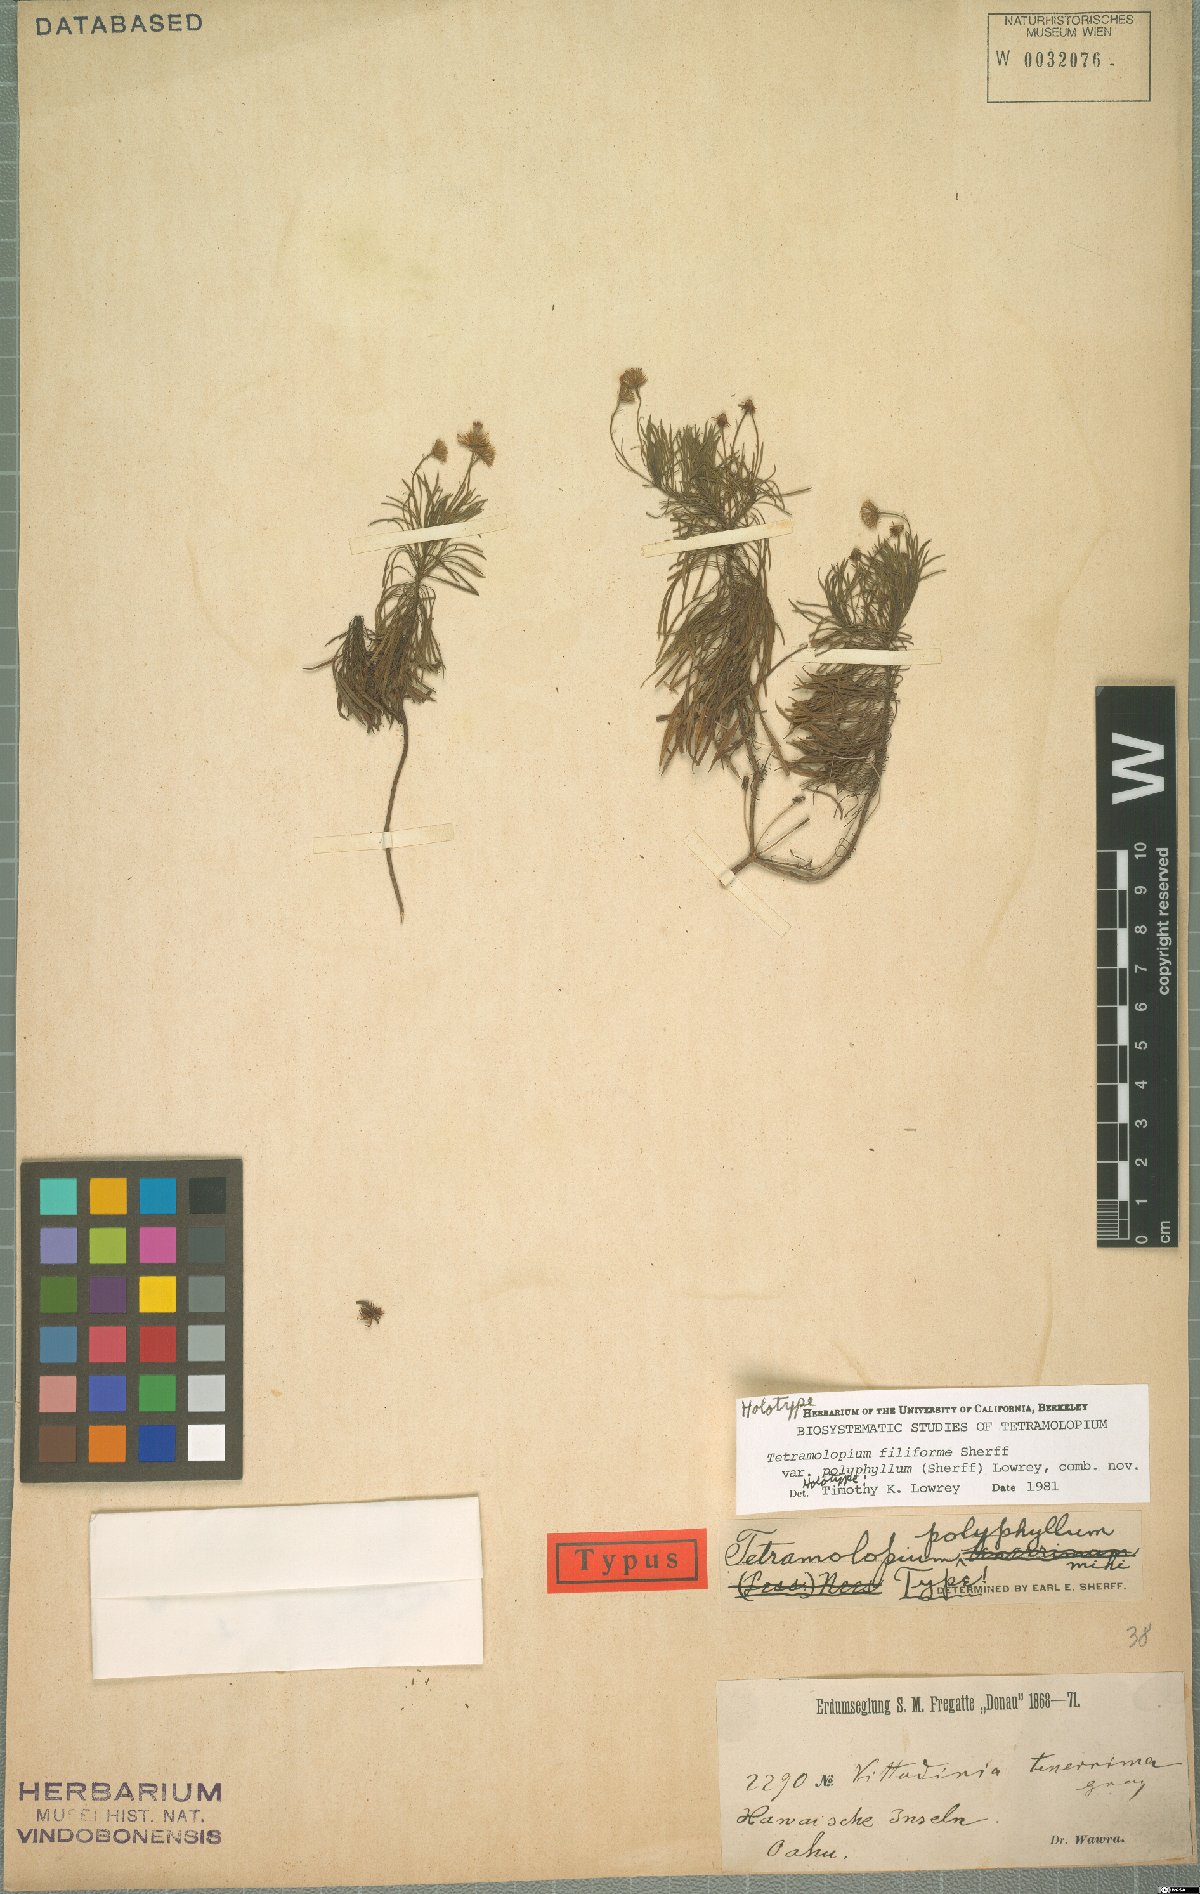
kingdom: Plantae
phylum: Tracheophyta
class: Magnoliopsida
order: Asterales
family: Asteraceae
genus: Tetramolopium
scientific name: Tetramolopium filiforme
